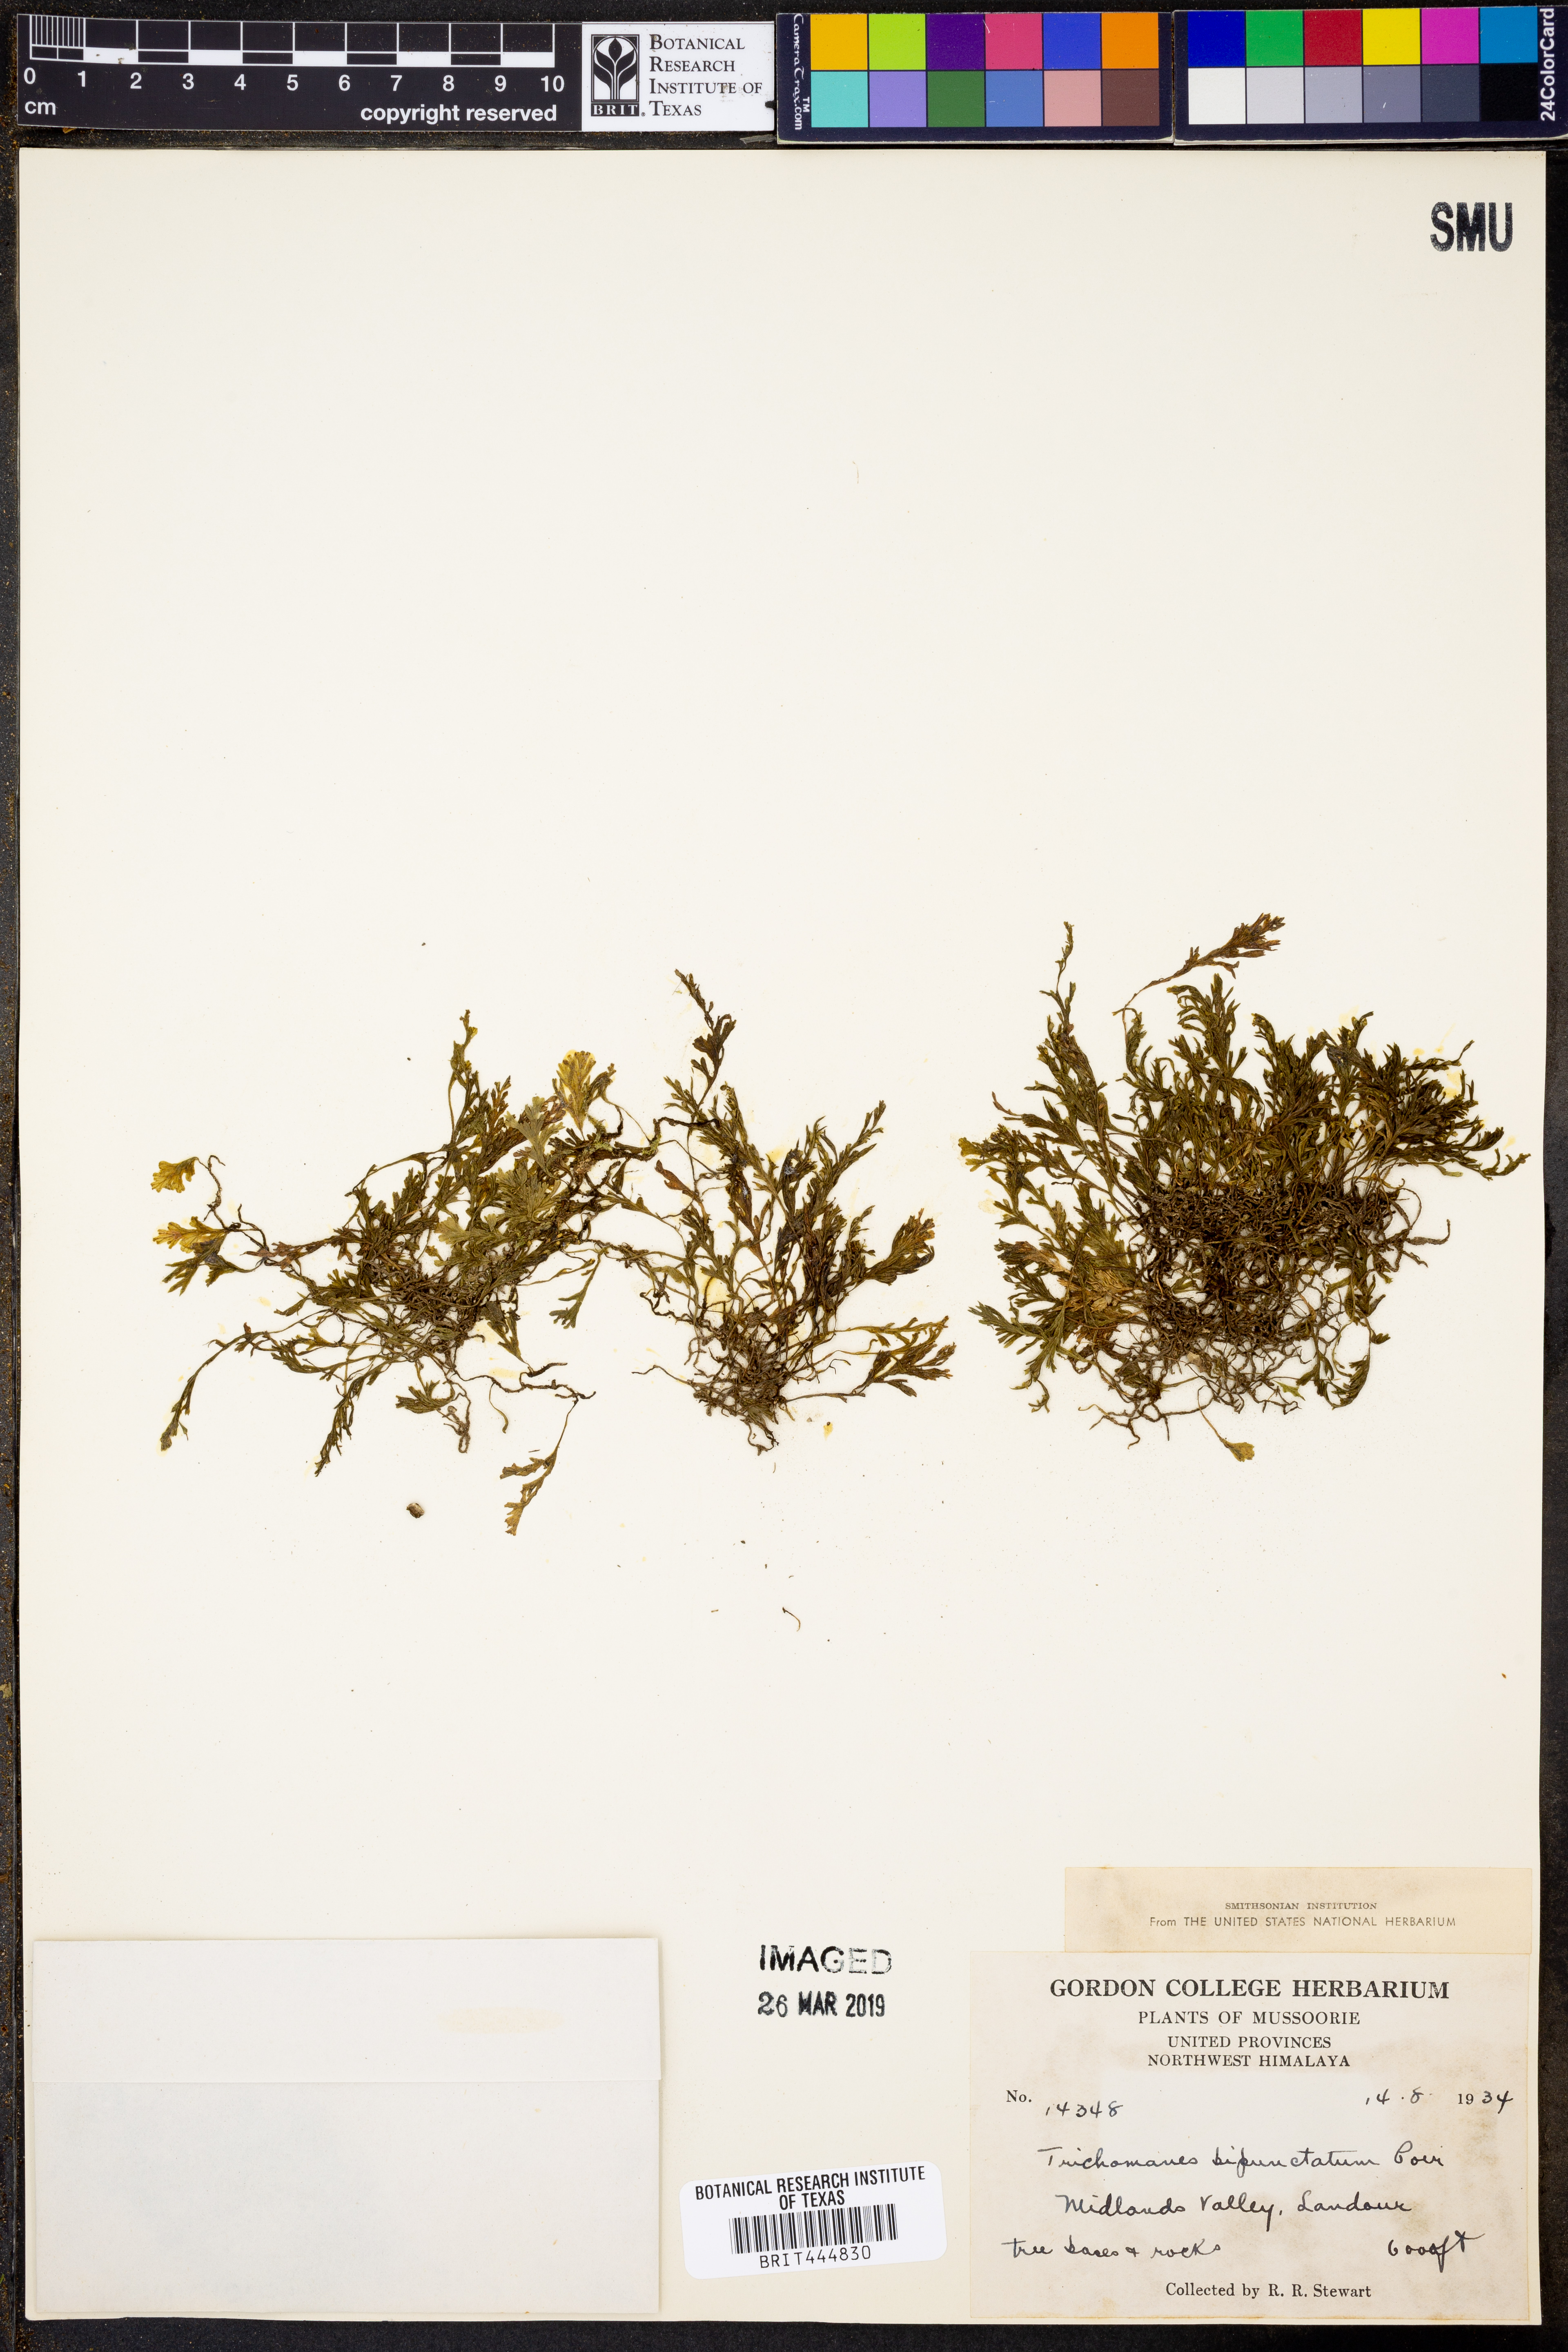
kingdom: Plantae
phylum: Tracheophyta
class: Polypodiopsida
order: Hymenophyllales
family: Hymenophyllaceae
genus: Crepidomanes
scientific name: Crepidomanes bipunctatum
